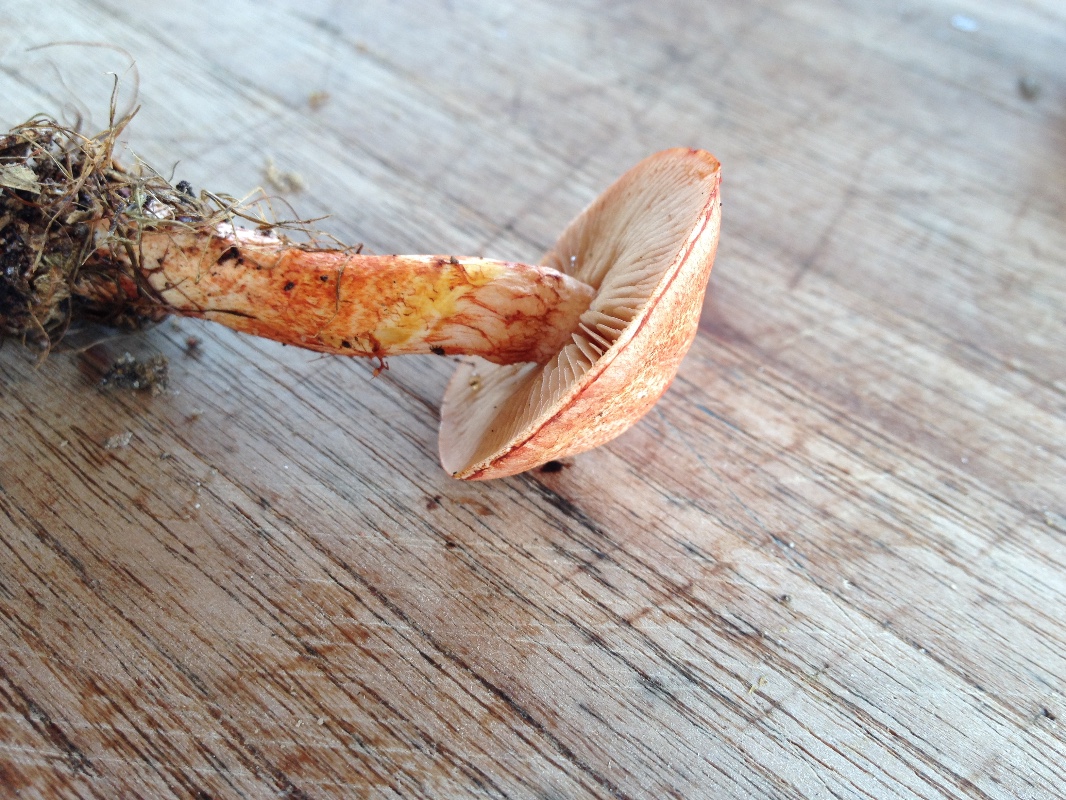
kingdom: Fungi
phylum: Basidiomycota
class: Agaricomycetes
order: Agaricales
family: Cortinariaceae
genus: Cortinarius
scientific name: Cortinarius bolaris
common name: cinnoberskællet slørhat
